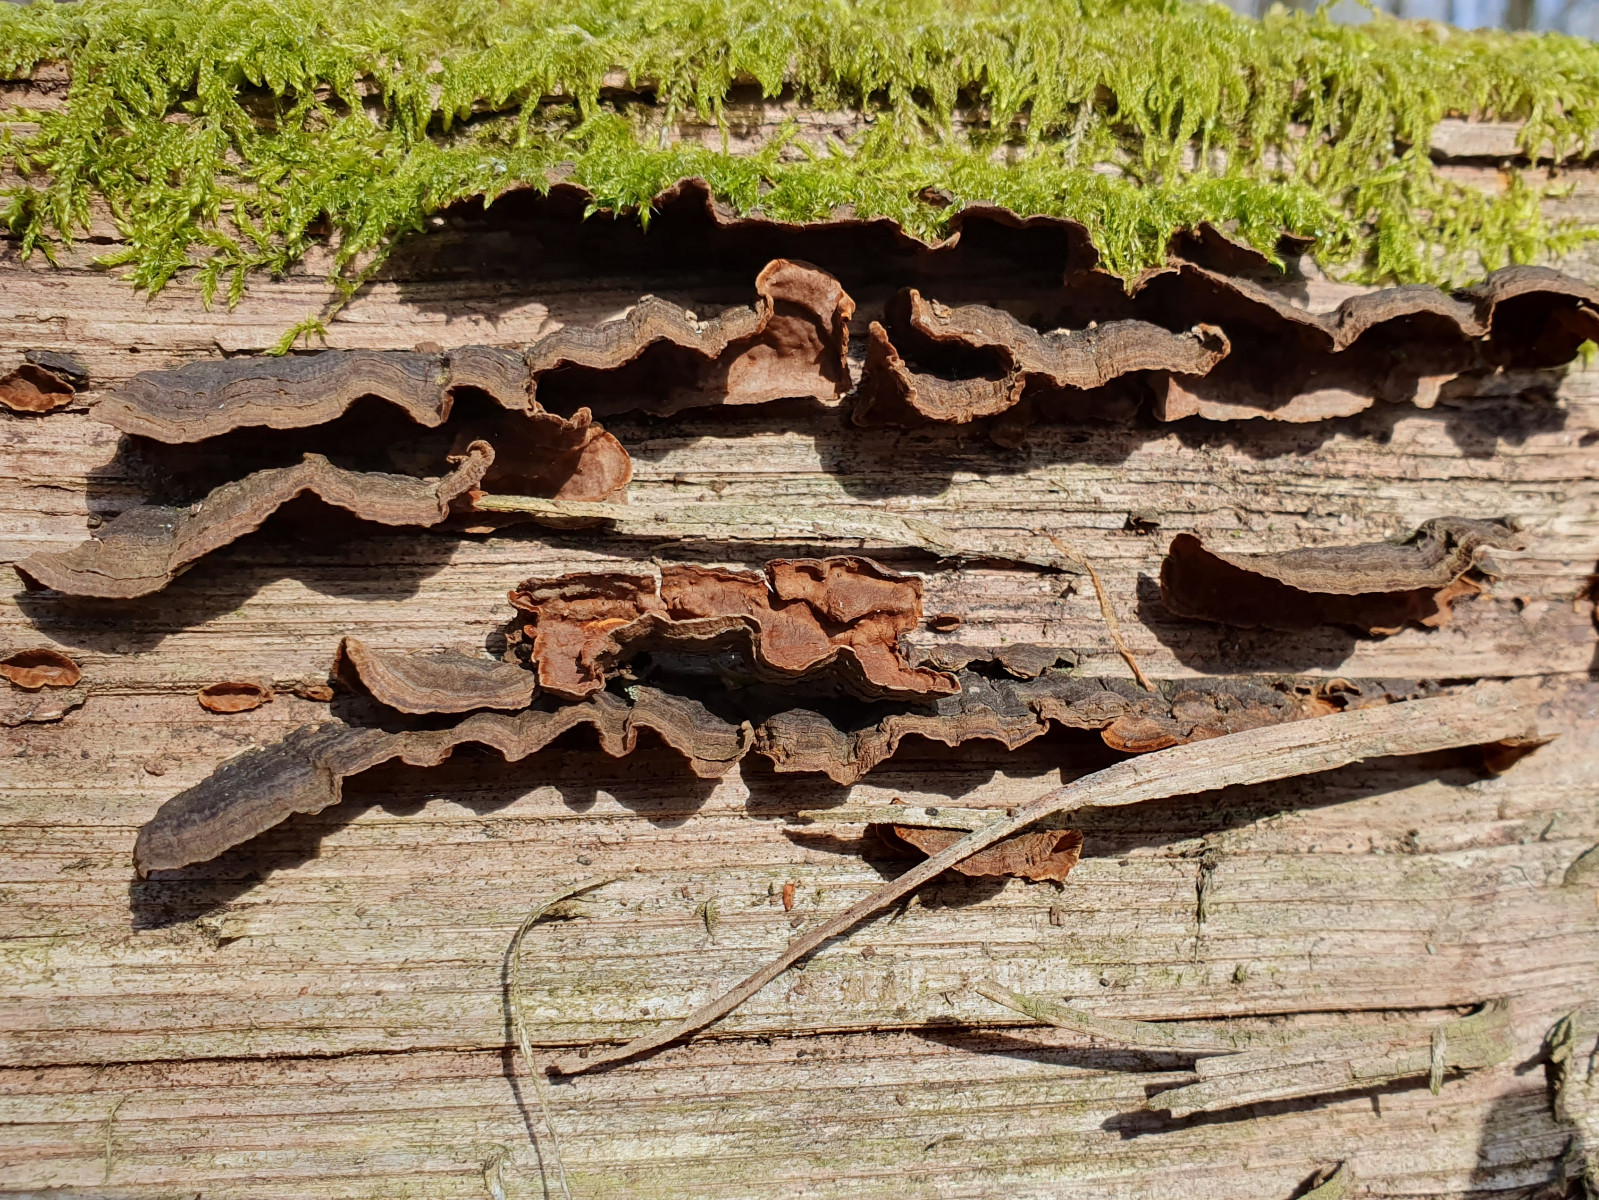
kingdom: Fungi
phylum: Basidiomycota
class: Agaricomycetes
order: Hymenochaetales
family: Hymenochaetaceae
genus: Hymenochaete
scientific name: Hymenochaete rubiginosa
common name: stiv ruslædersvamp
